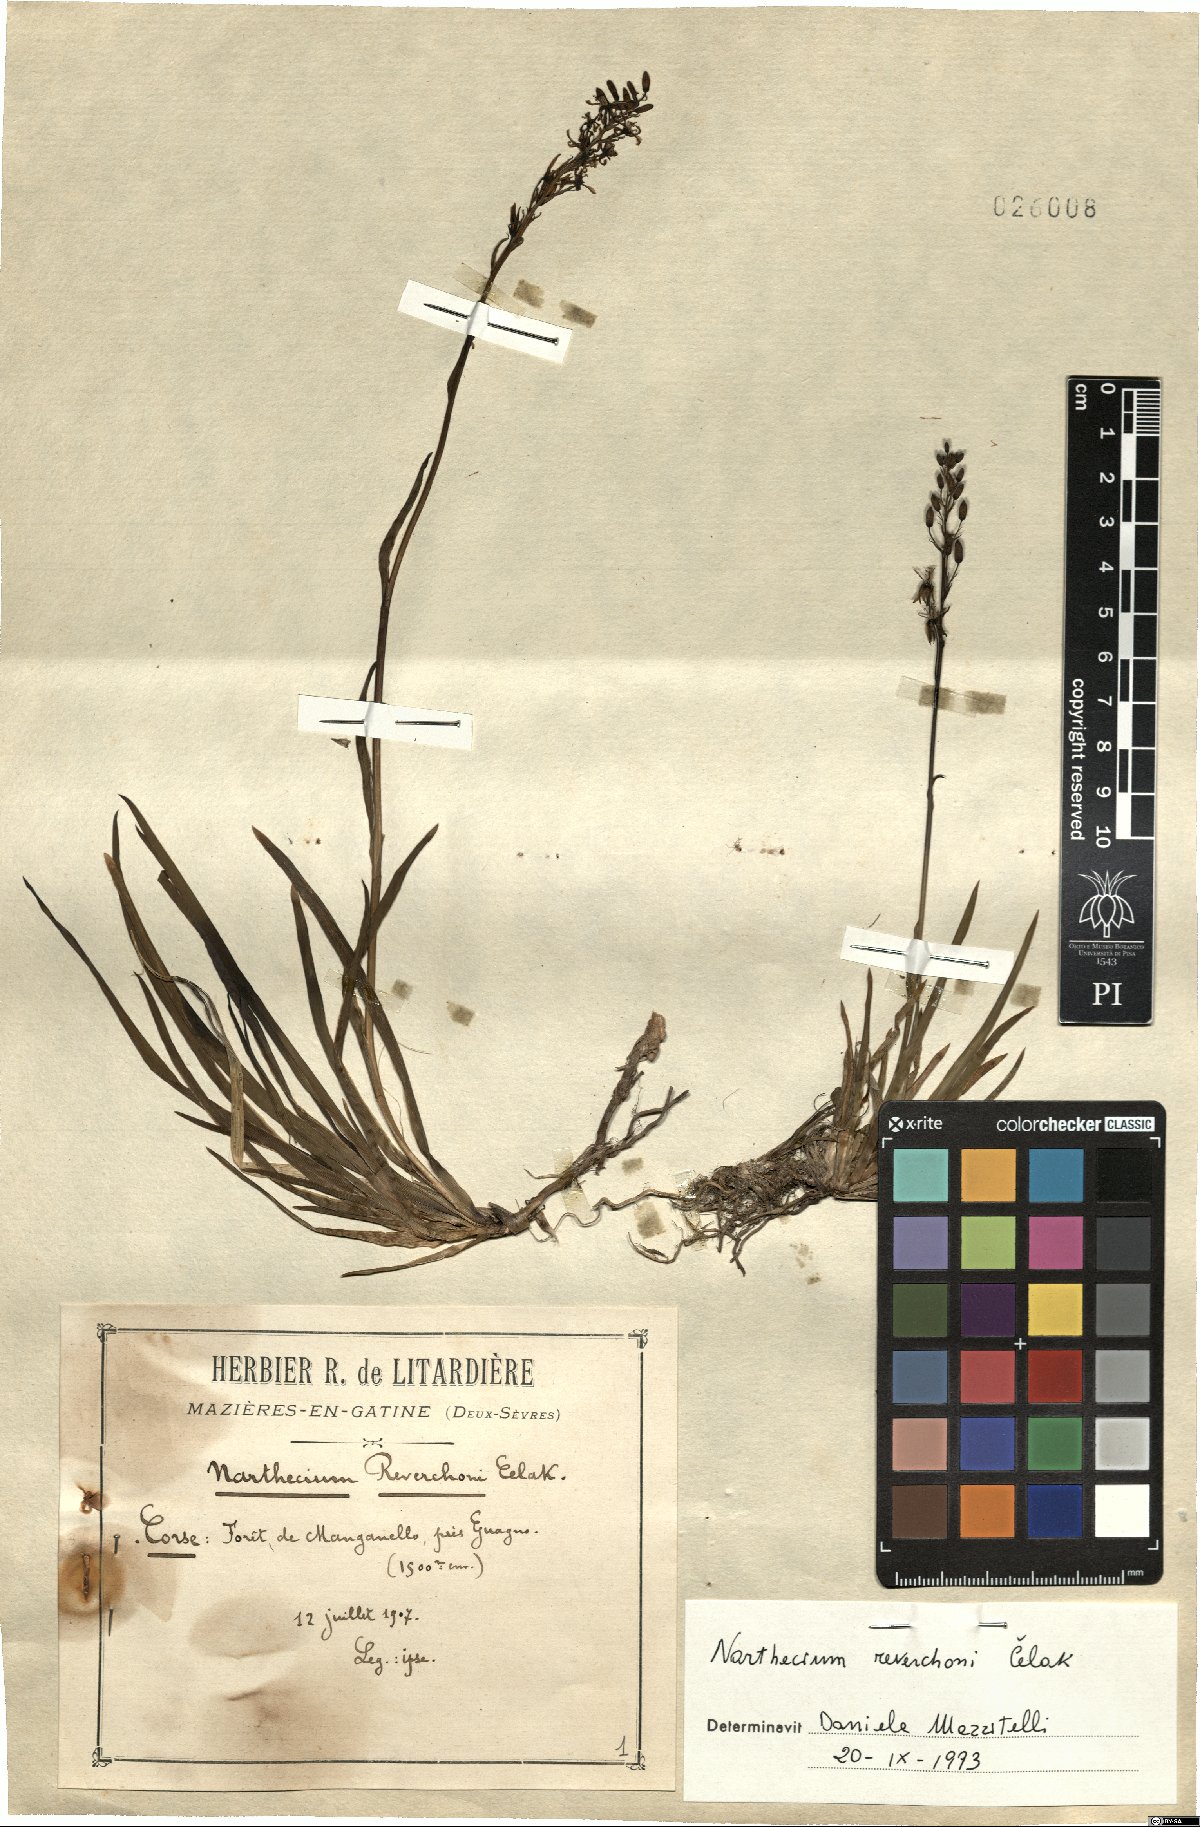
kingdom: Plantae
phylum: Tracheophyta
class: Liliopsida
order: Dioscoreales
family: Nartheciaceae
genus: Narthecium
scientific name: Narthecium reverchonii
